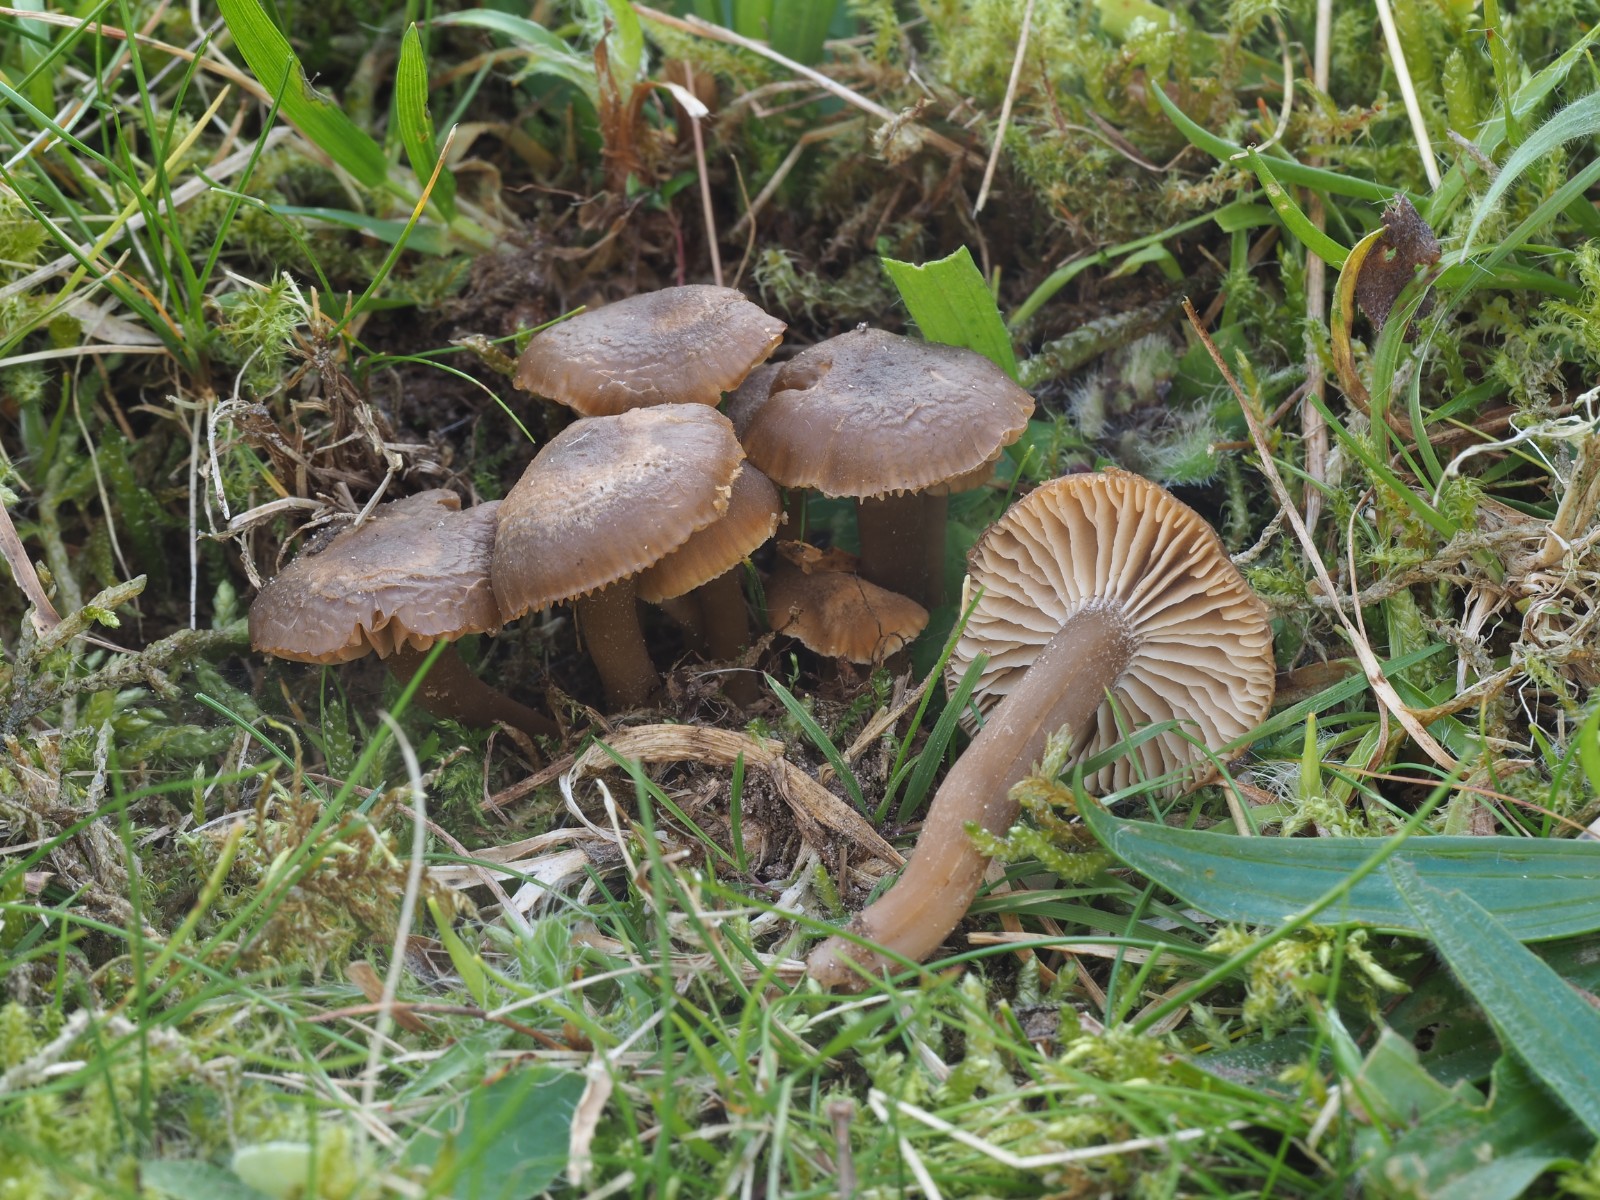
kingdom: Fungi
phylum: Basidiomycota
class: Agaricomycetes
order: Agaricales
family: Clavariaceae
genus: Camarophyllopsis
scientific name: Camarophyllopsis schulzeri
